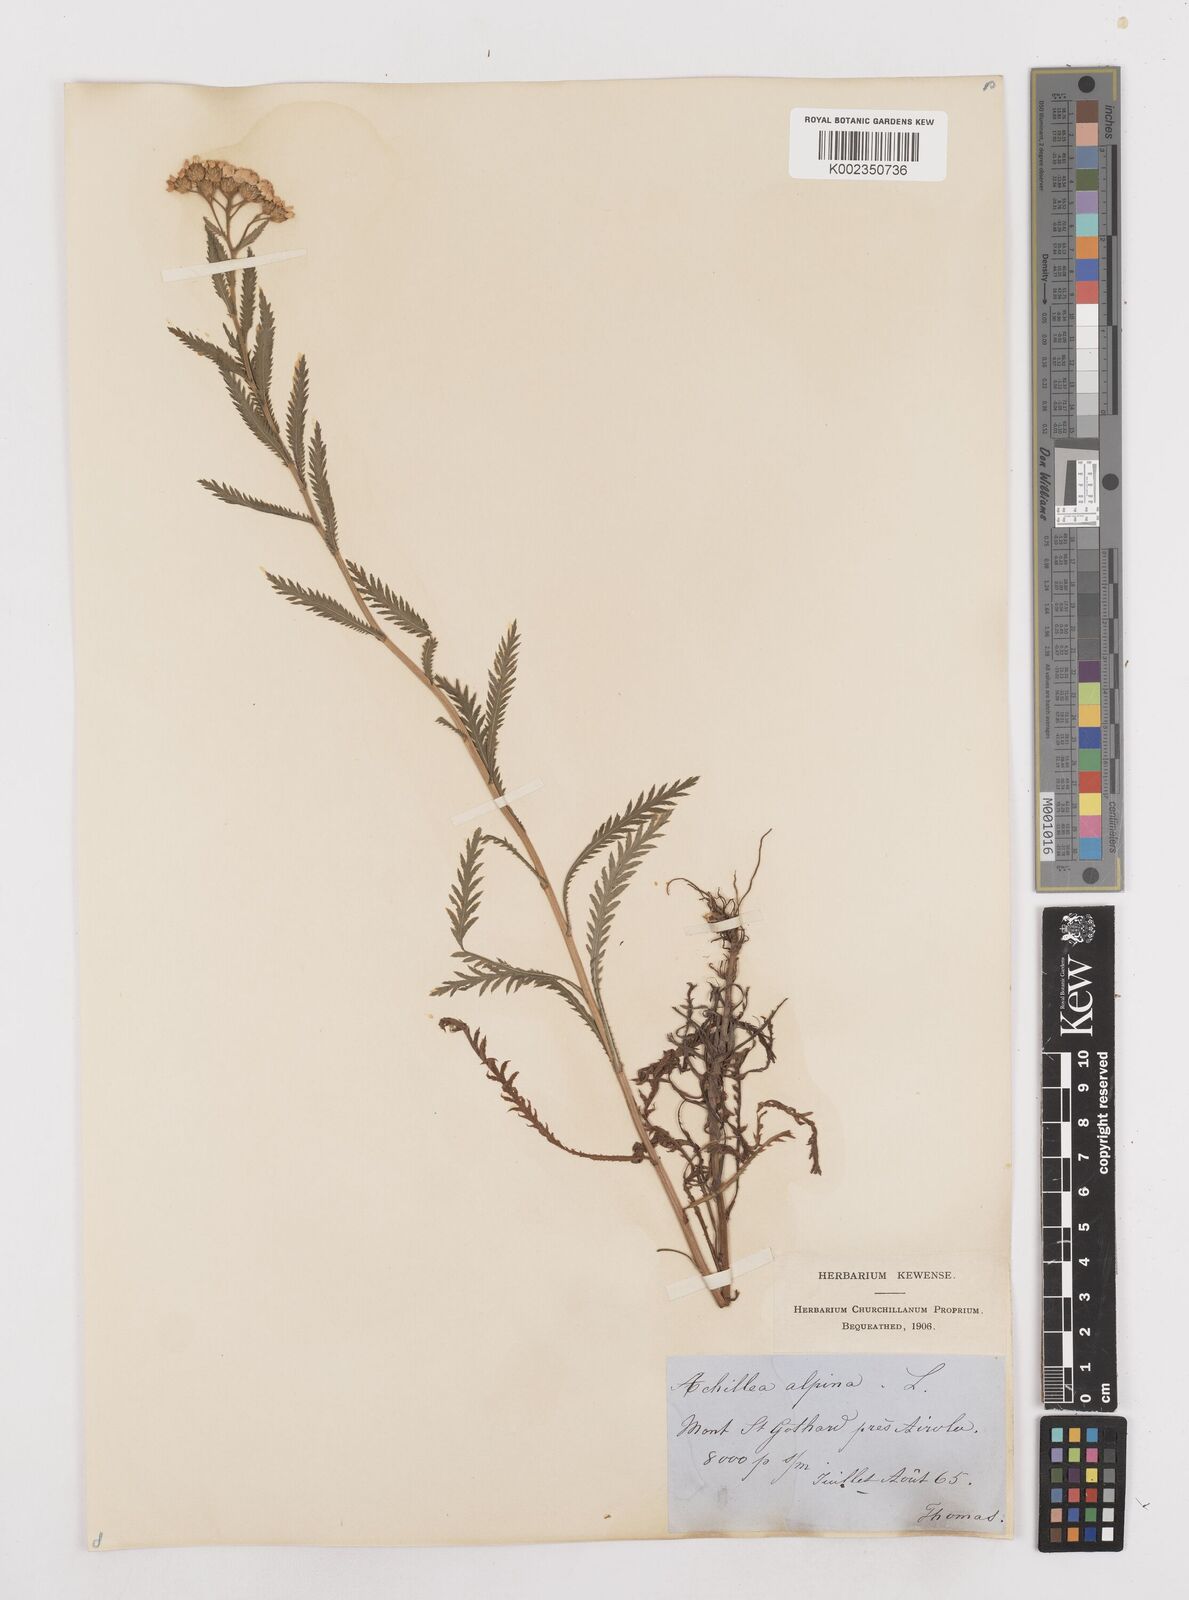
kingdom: Plantae
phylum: Tracheophyta
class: Magnoliopsida
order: Asterales
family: Asteraceae
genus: Achillea
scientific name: Achillea impatiens
